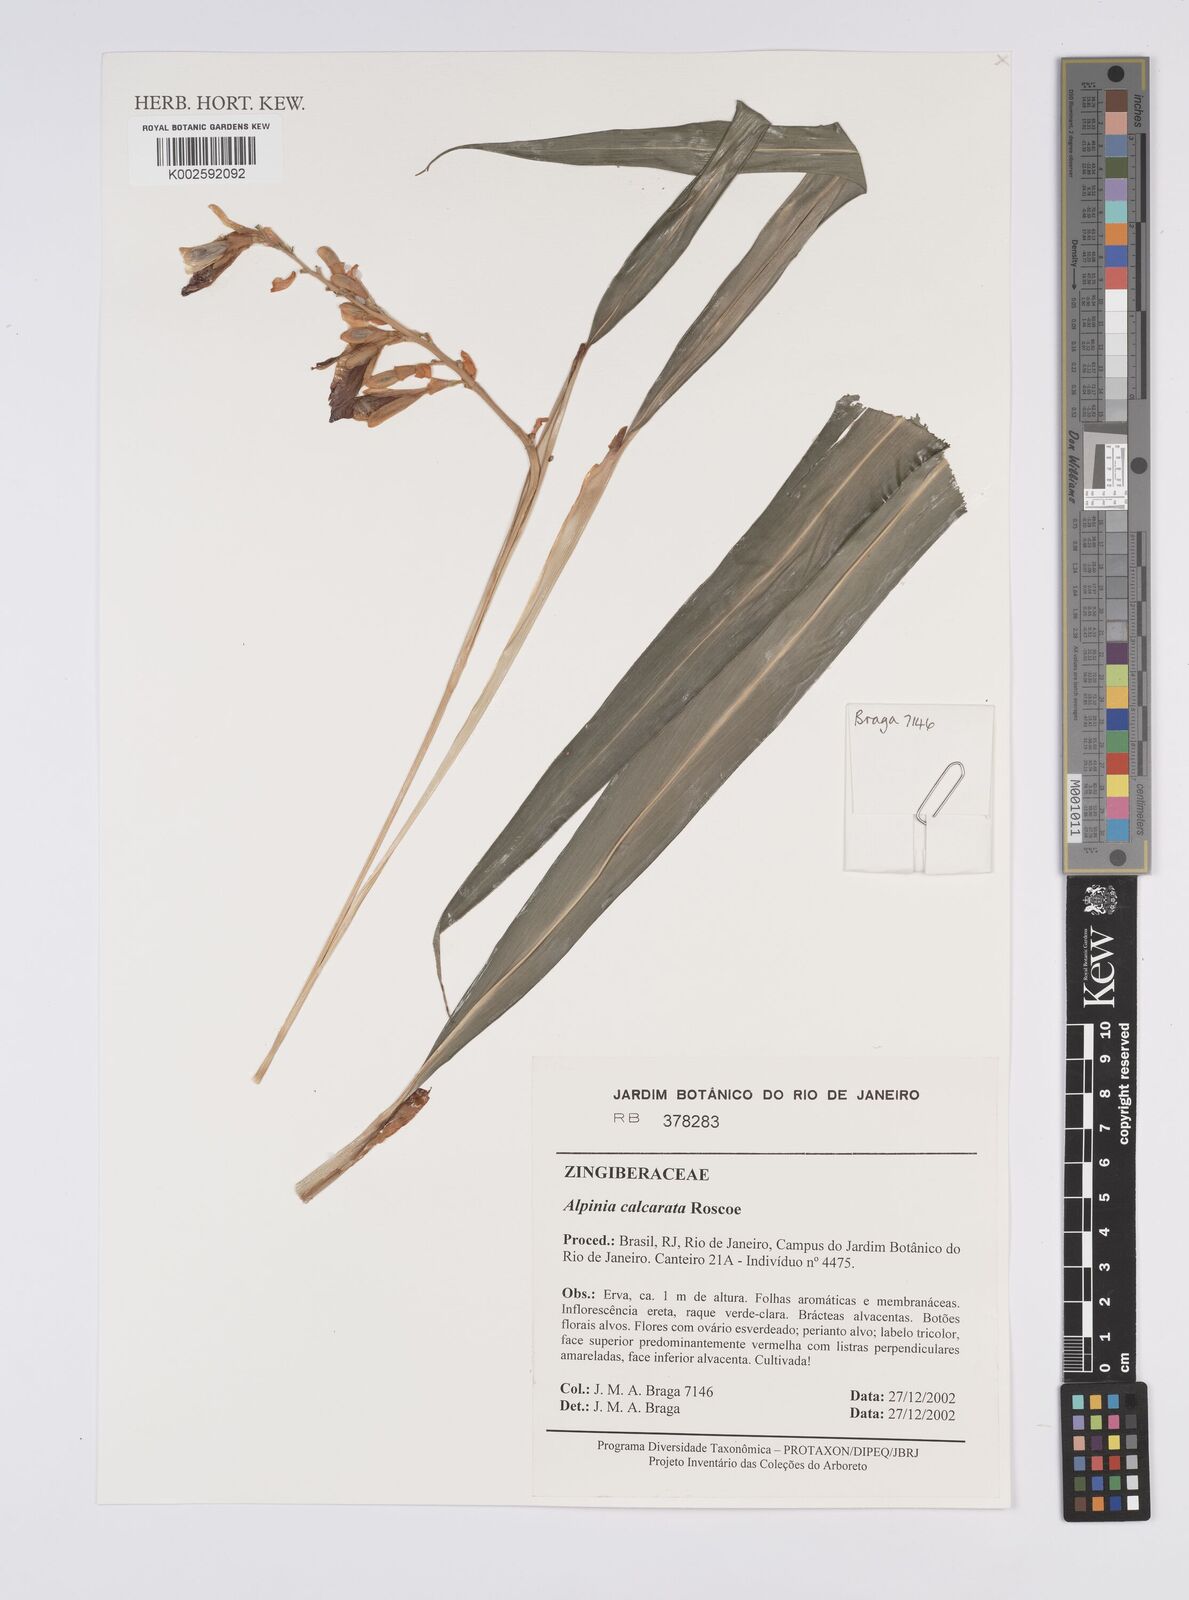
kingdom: Plantae
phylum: Tracheophyta
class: Liliopsida
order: Zingiberales
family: Zingiberaceae
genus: Alpinia
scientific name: Alpinia calcarata
